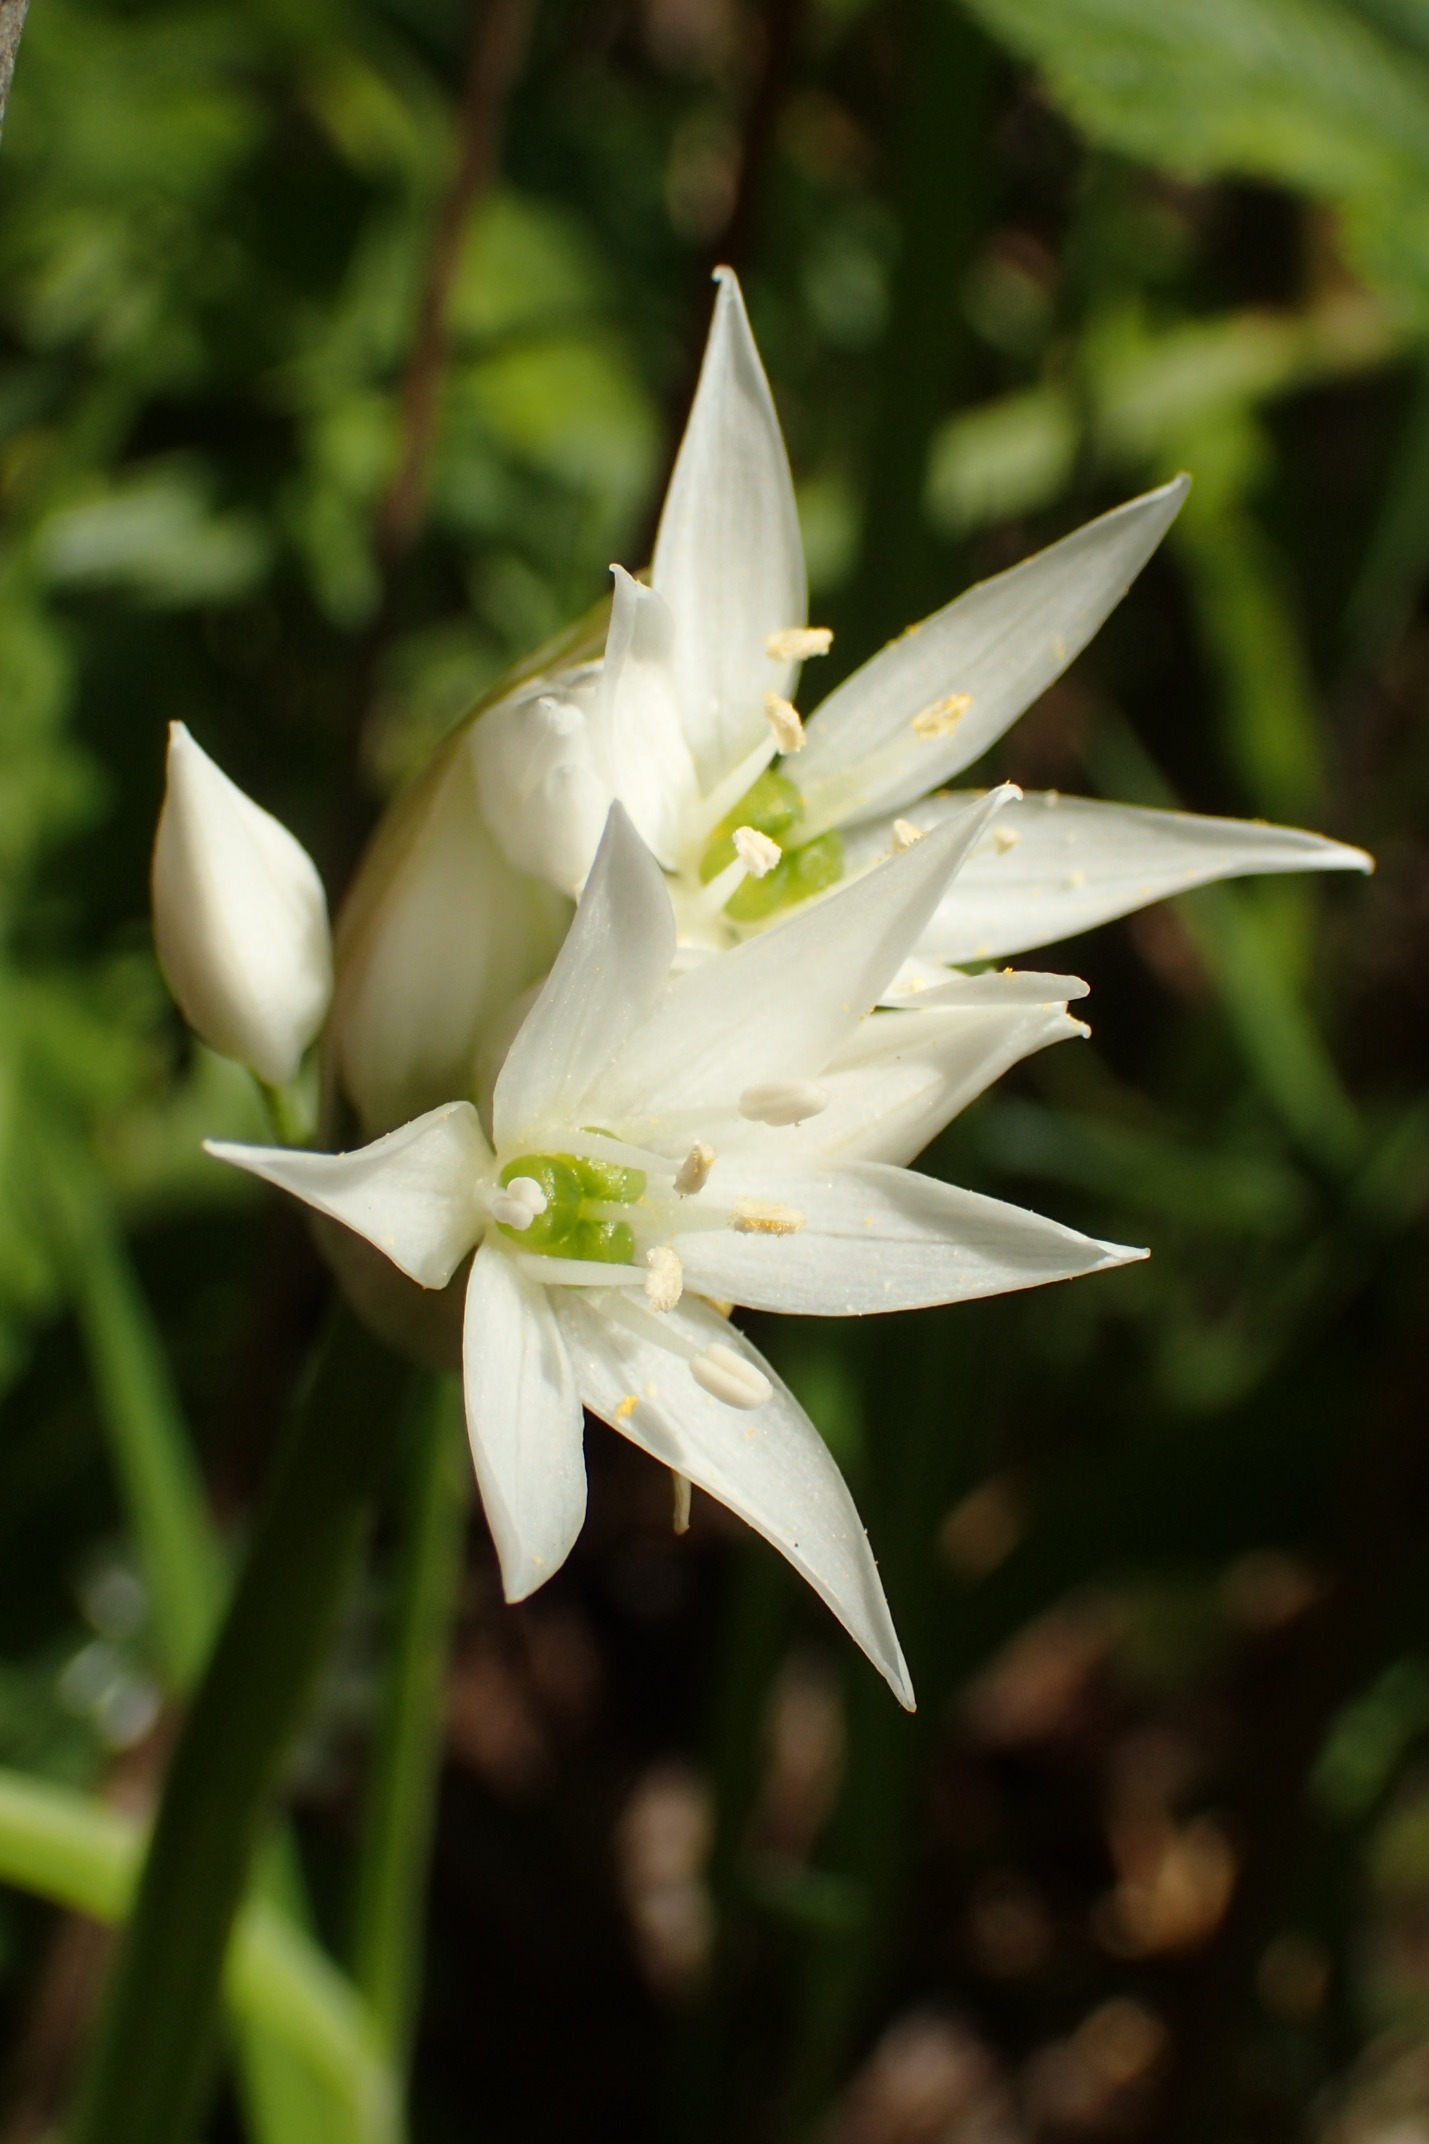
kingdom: Plantae
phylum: Tracheophyta
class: Liliopsida
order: Asparagales
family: Amaryllidaceae
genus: Allium
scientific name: Allium ursinum
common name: Rams-løg
